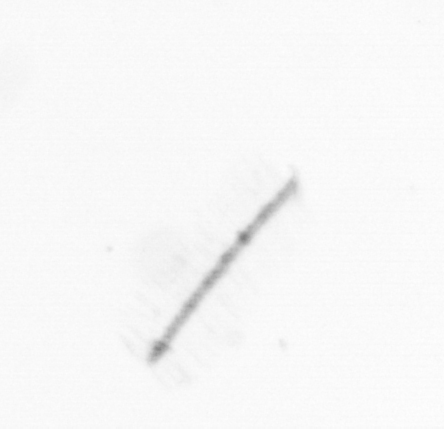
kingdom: Chromista
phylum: Ochrophyta
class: Bacillariophyceae
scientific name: Bacillariophyceae
